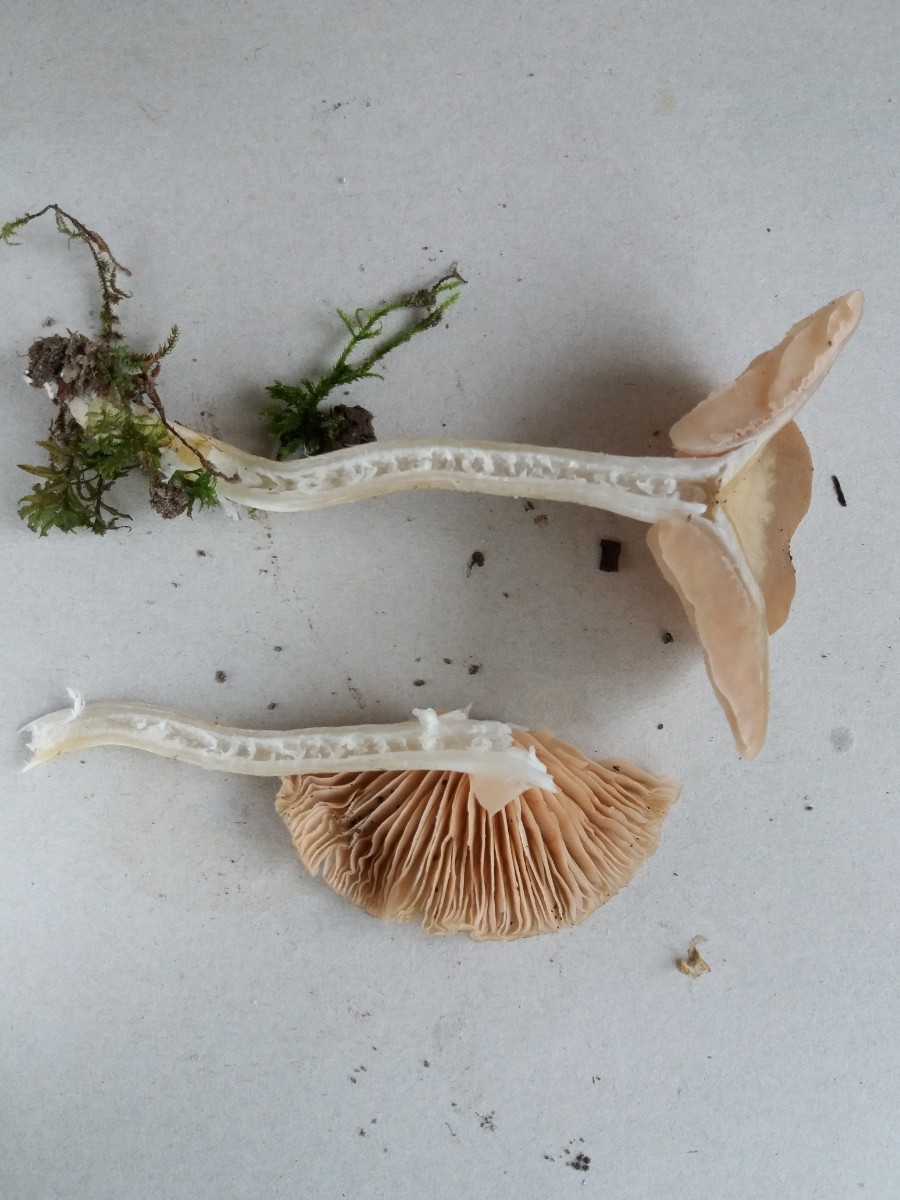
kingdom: Fungi
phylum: Basidiomycota
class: Agaricomycetes
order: Agaricales
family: Entolomataceae
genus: Entoloma
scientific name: Entoloma
